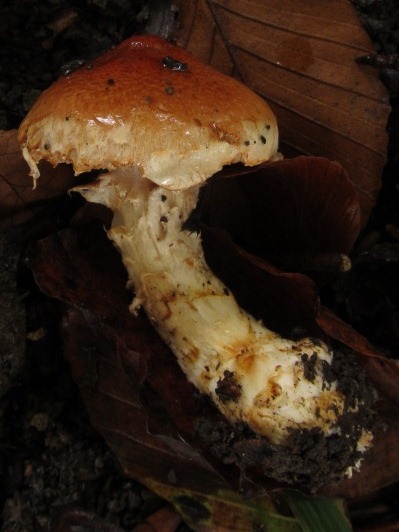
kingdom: Fungi
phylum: Basidiomycota
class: Agaricomycetes
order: Agaricales
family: Cortinariaceae
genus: Phlegmacium
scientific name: Phlegmacium vulpinum
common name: ringbæltet slørhat
